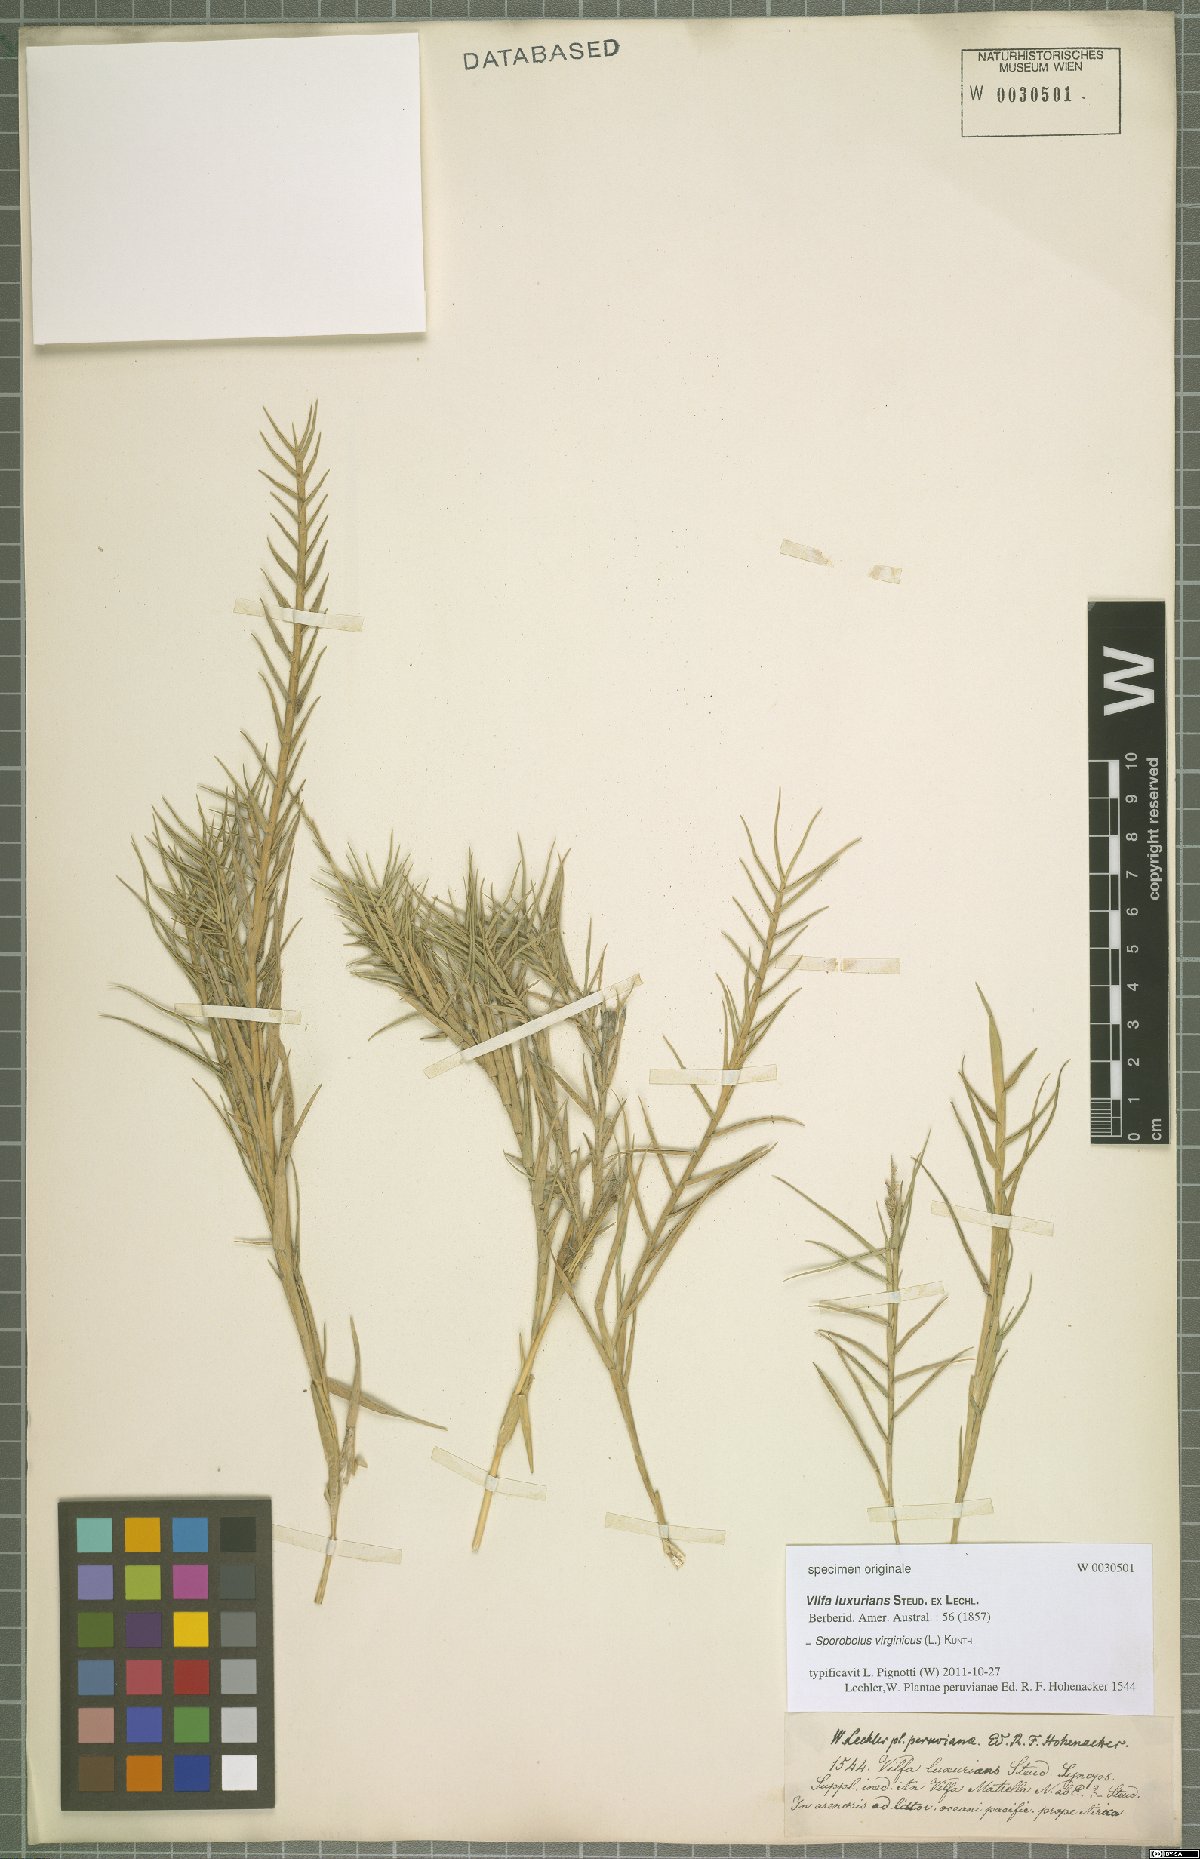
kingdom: Plantae
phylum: Tracheophyta
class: Liliopsida
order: Poales
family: Poaceae
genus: Sporobolus
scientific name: Sporobolus virginicus
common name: Beach dropseed
